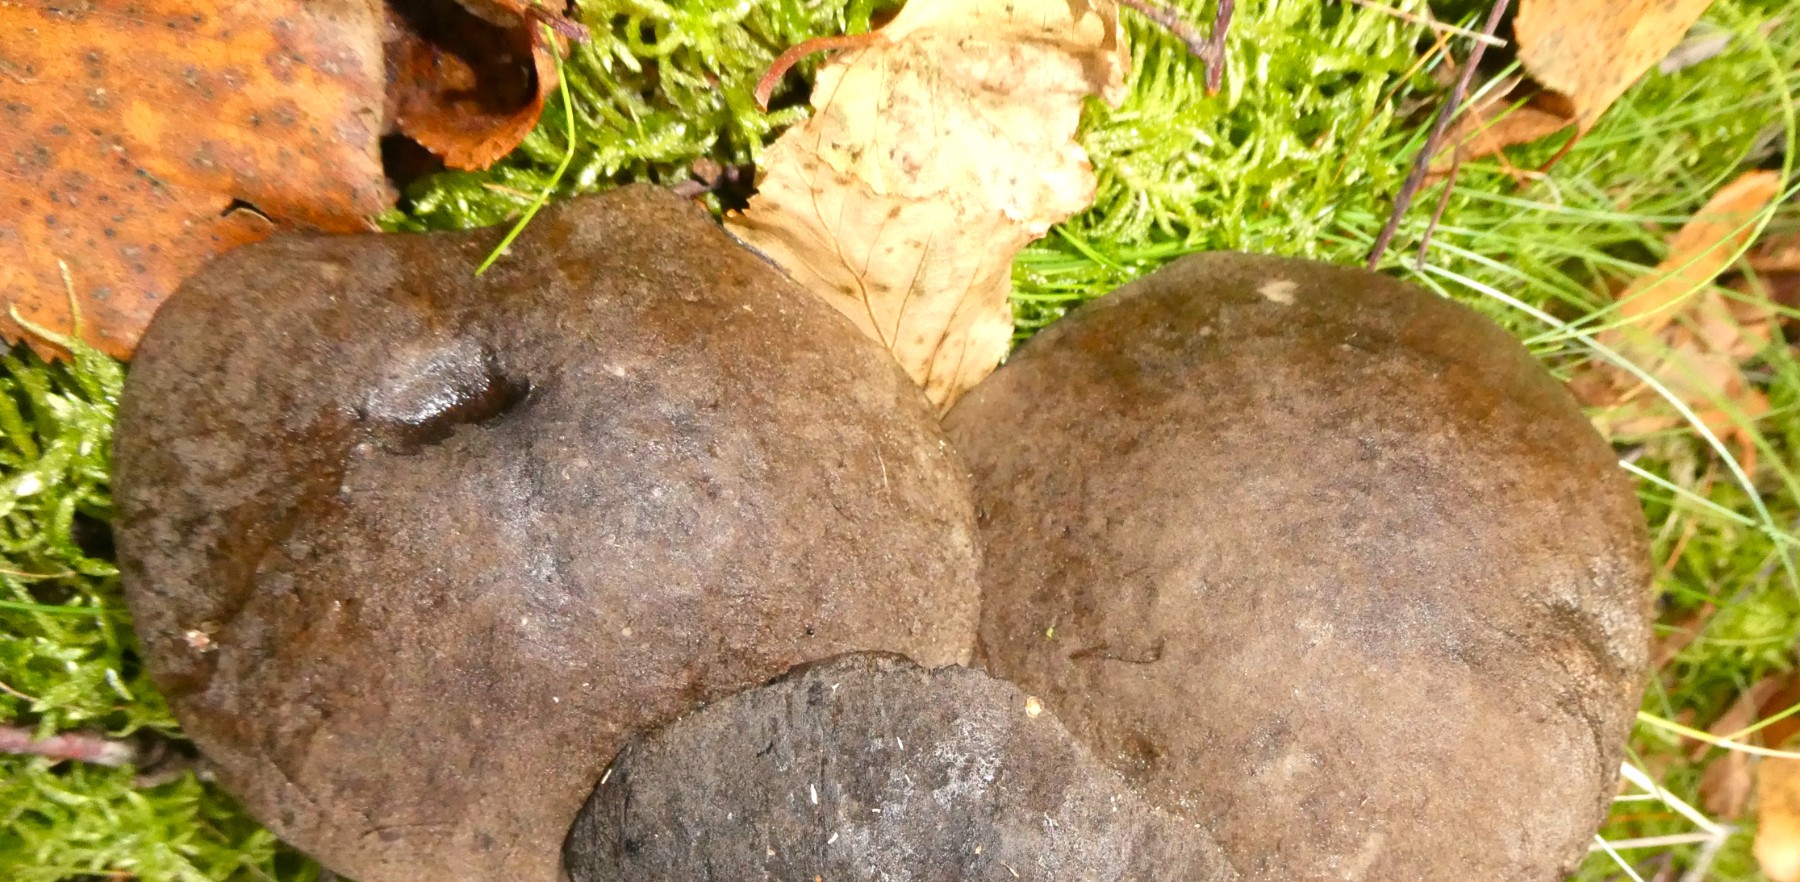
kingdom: Fungi
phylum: Basidiomycota
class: Agaricomycetes
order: Boletales
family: Boletaceae
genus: Leccinum
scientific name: Leccinum
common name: skælrørhat
